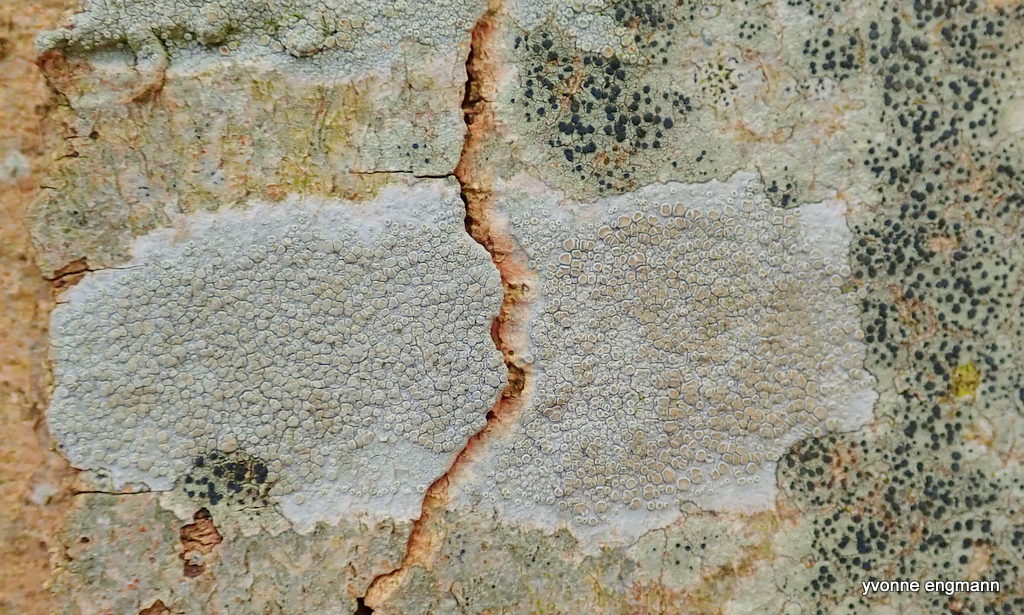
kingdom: Fungi
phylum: Ascomycota
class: Lecanoromycetes
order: Lecanorales
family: Lecanoraceae
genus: Lecanora
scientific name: Lecanora chlarotera
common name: brun kantskivelav
